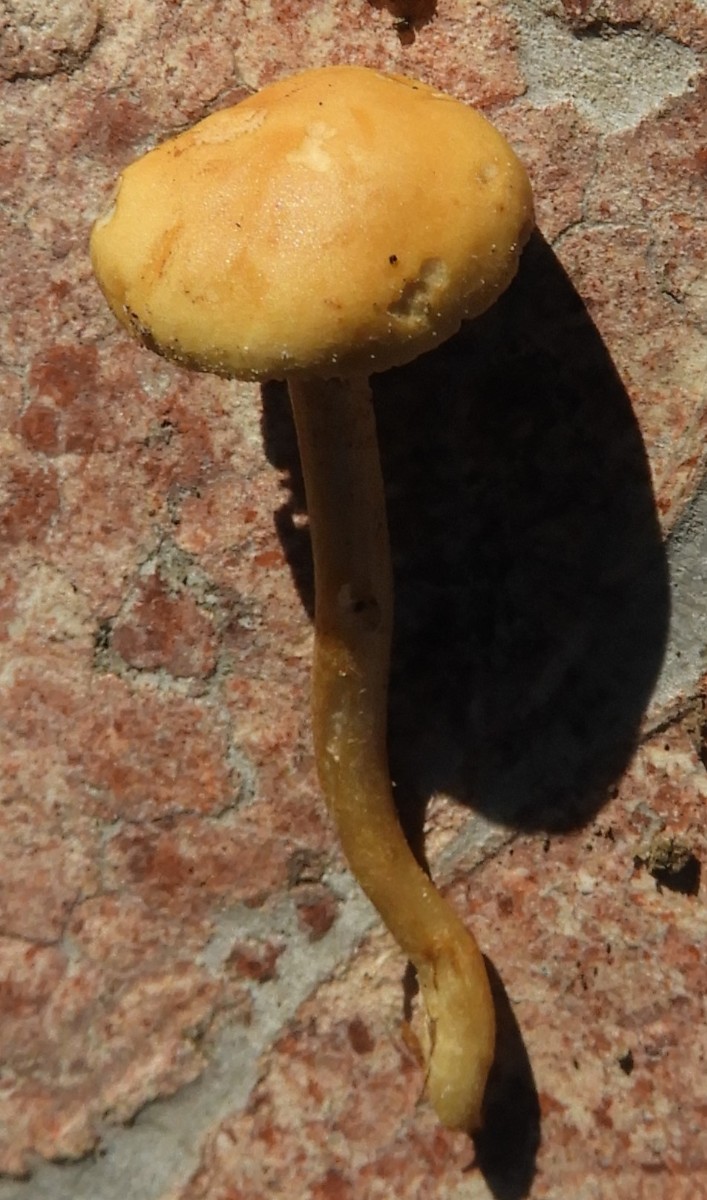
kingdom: Fungi
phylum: Basidiomycota
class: Agaricomycetes
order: Agaricales
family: Strophariaceae
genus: Agrocybe
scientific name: Agrocybe pediades
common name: almindelig agerhat
